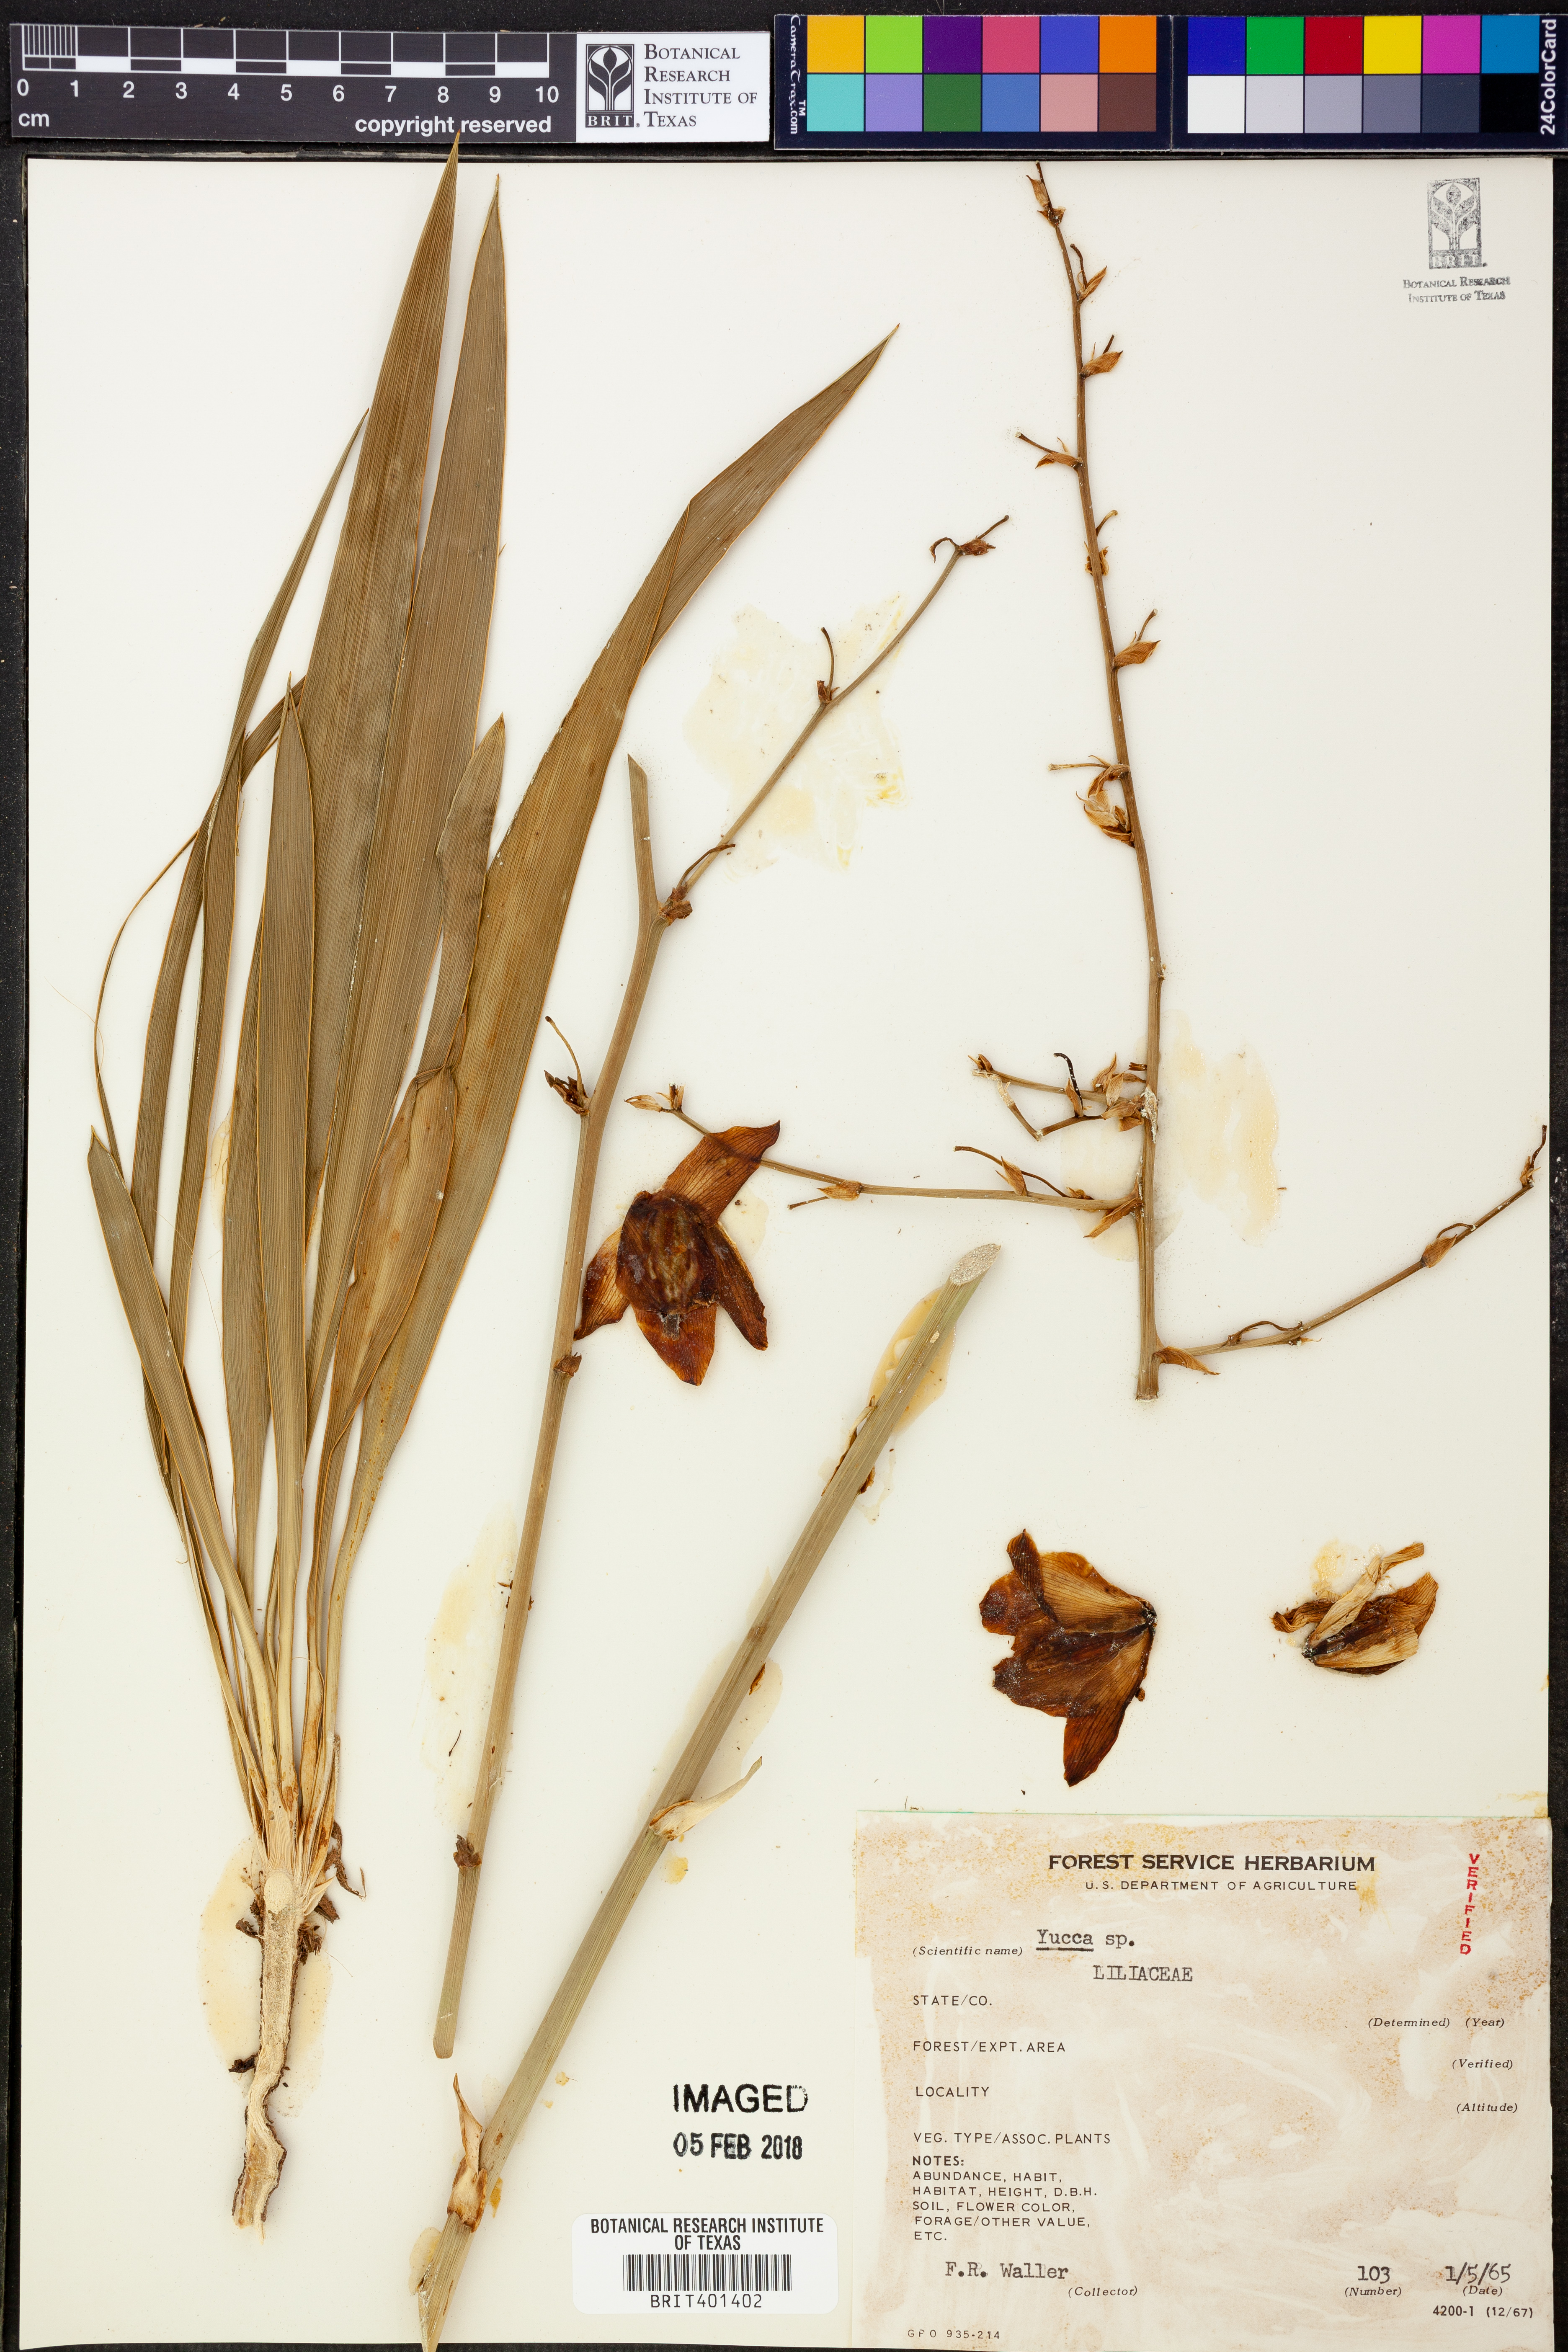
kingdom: Plantae
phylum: Tracheophyta
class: Liliopsida
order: Asparagales
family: Asparagaceae
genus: Yucca
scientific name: Yucca
